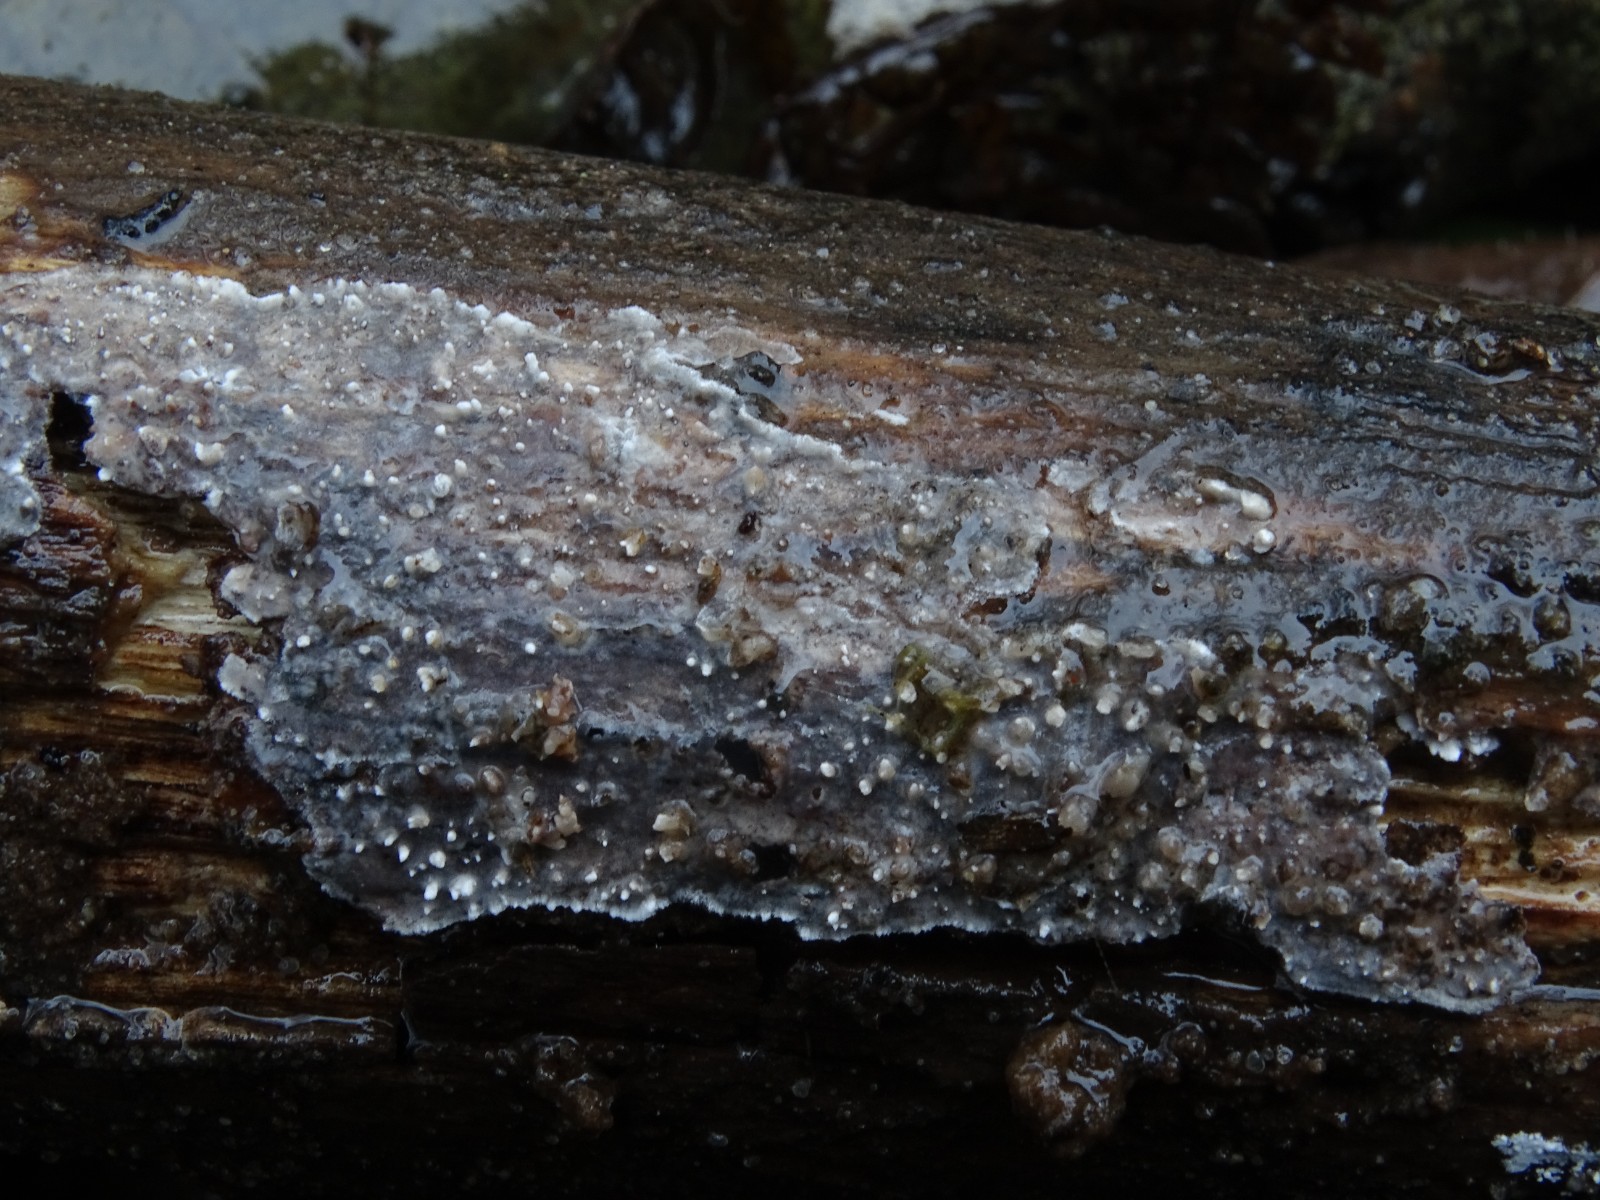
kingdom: Fungi
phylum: Basidiomycota
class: Agaricomycetes
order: Auriculariales
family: Auriculariaceae
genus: Heteroradulum
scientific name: Heteroradulum deglubens
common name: bævreskorpe
